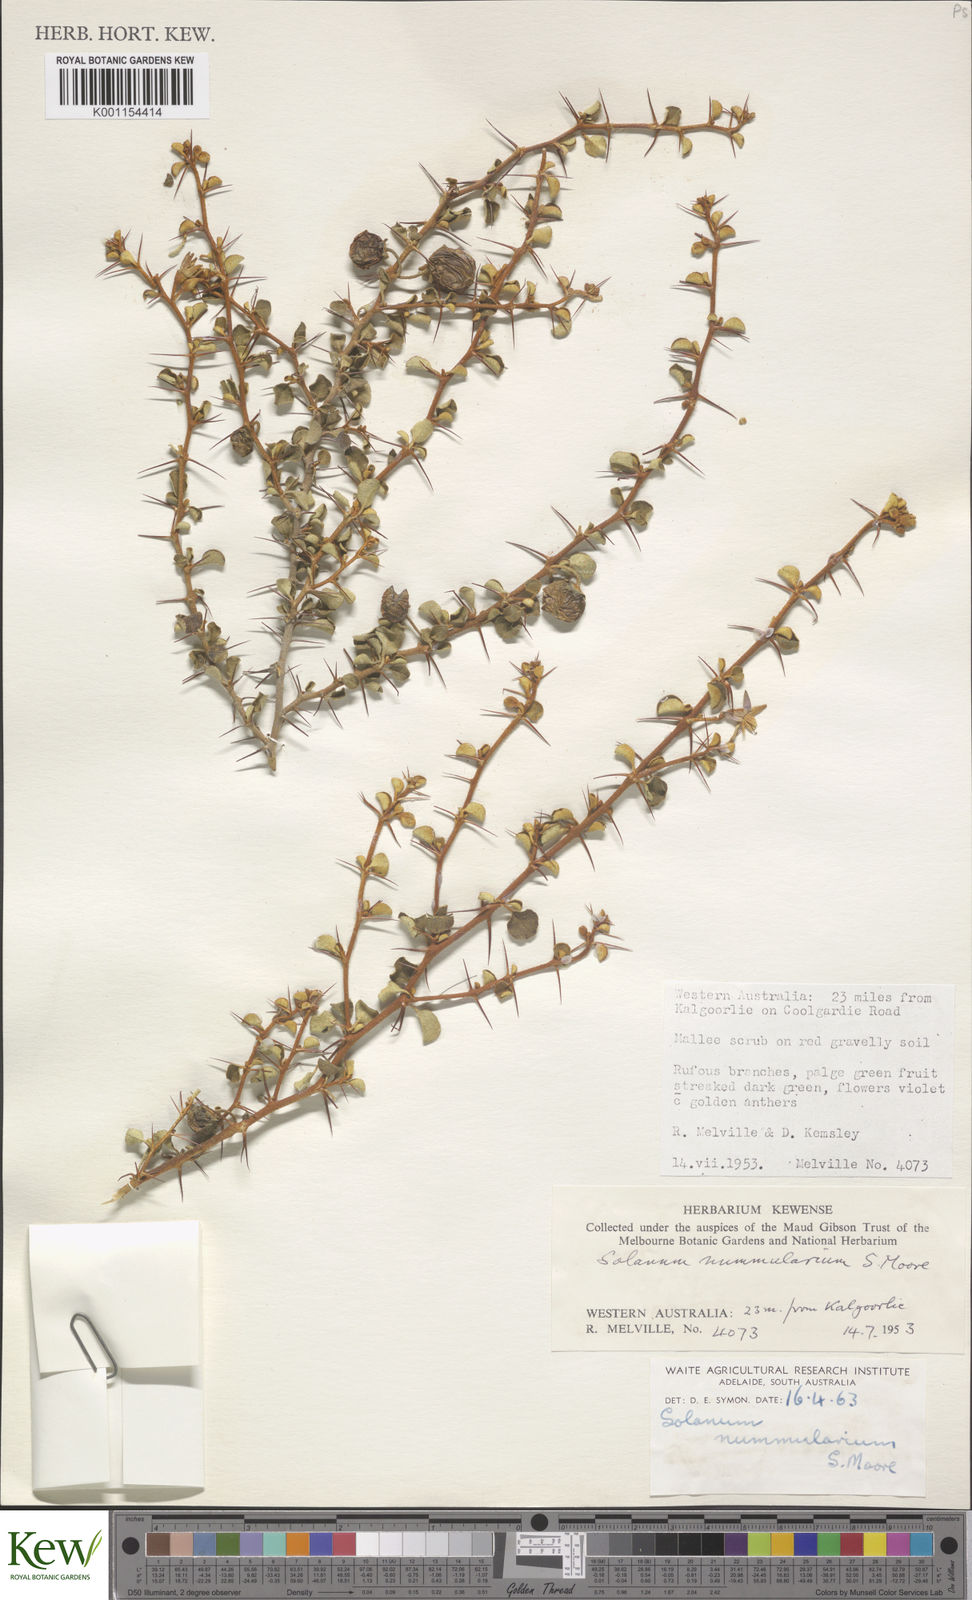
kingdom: Plantae
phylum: Tracheophyta
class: Magnoliopsida
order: Solanales
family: Solanaceae
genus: Solanum
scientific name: Solanum nummularium
